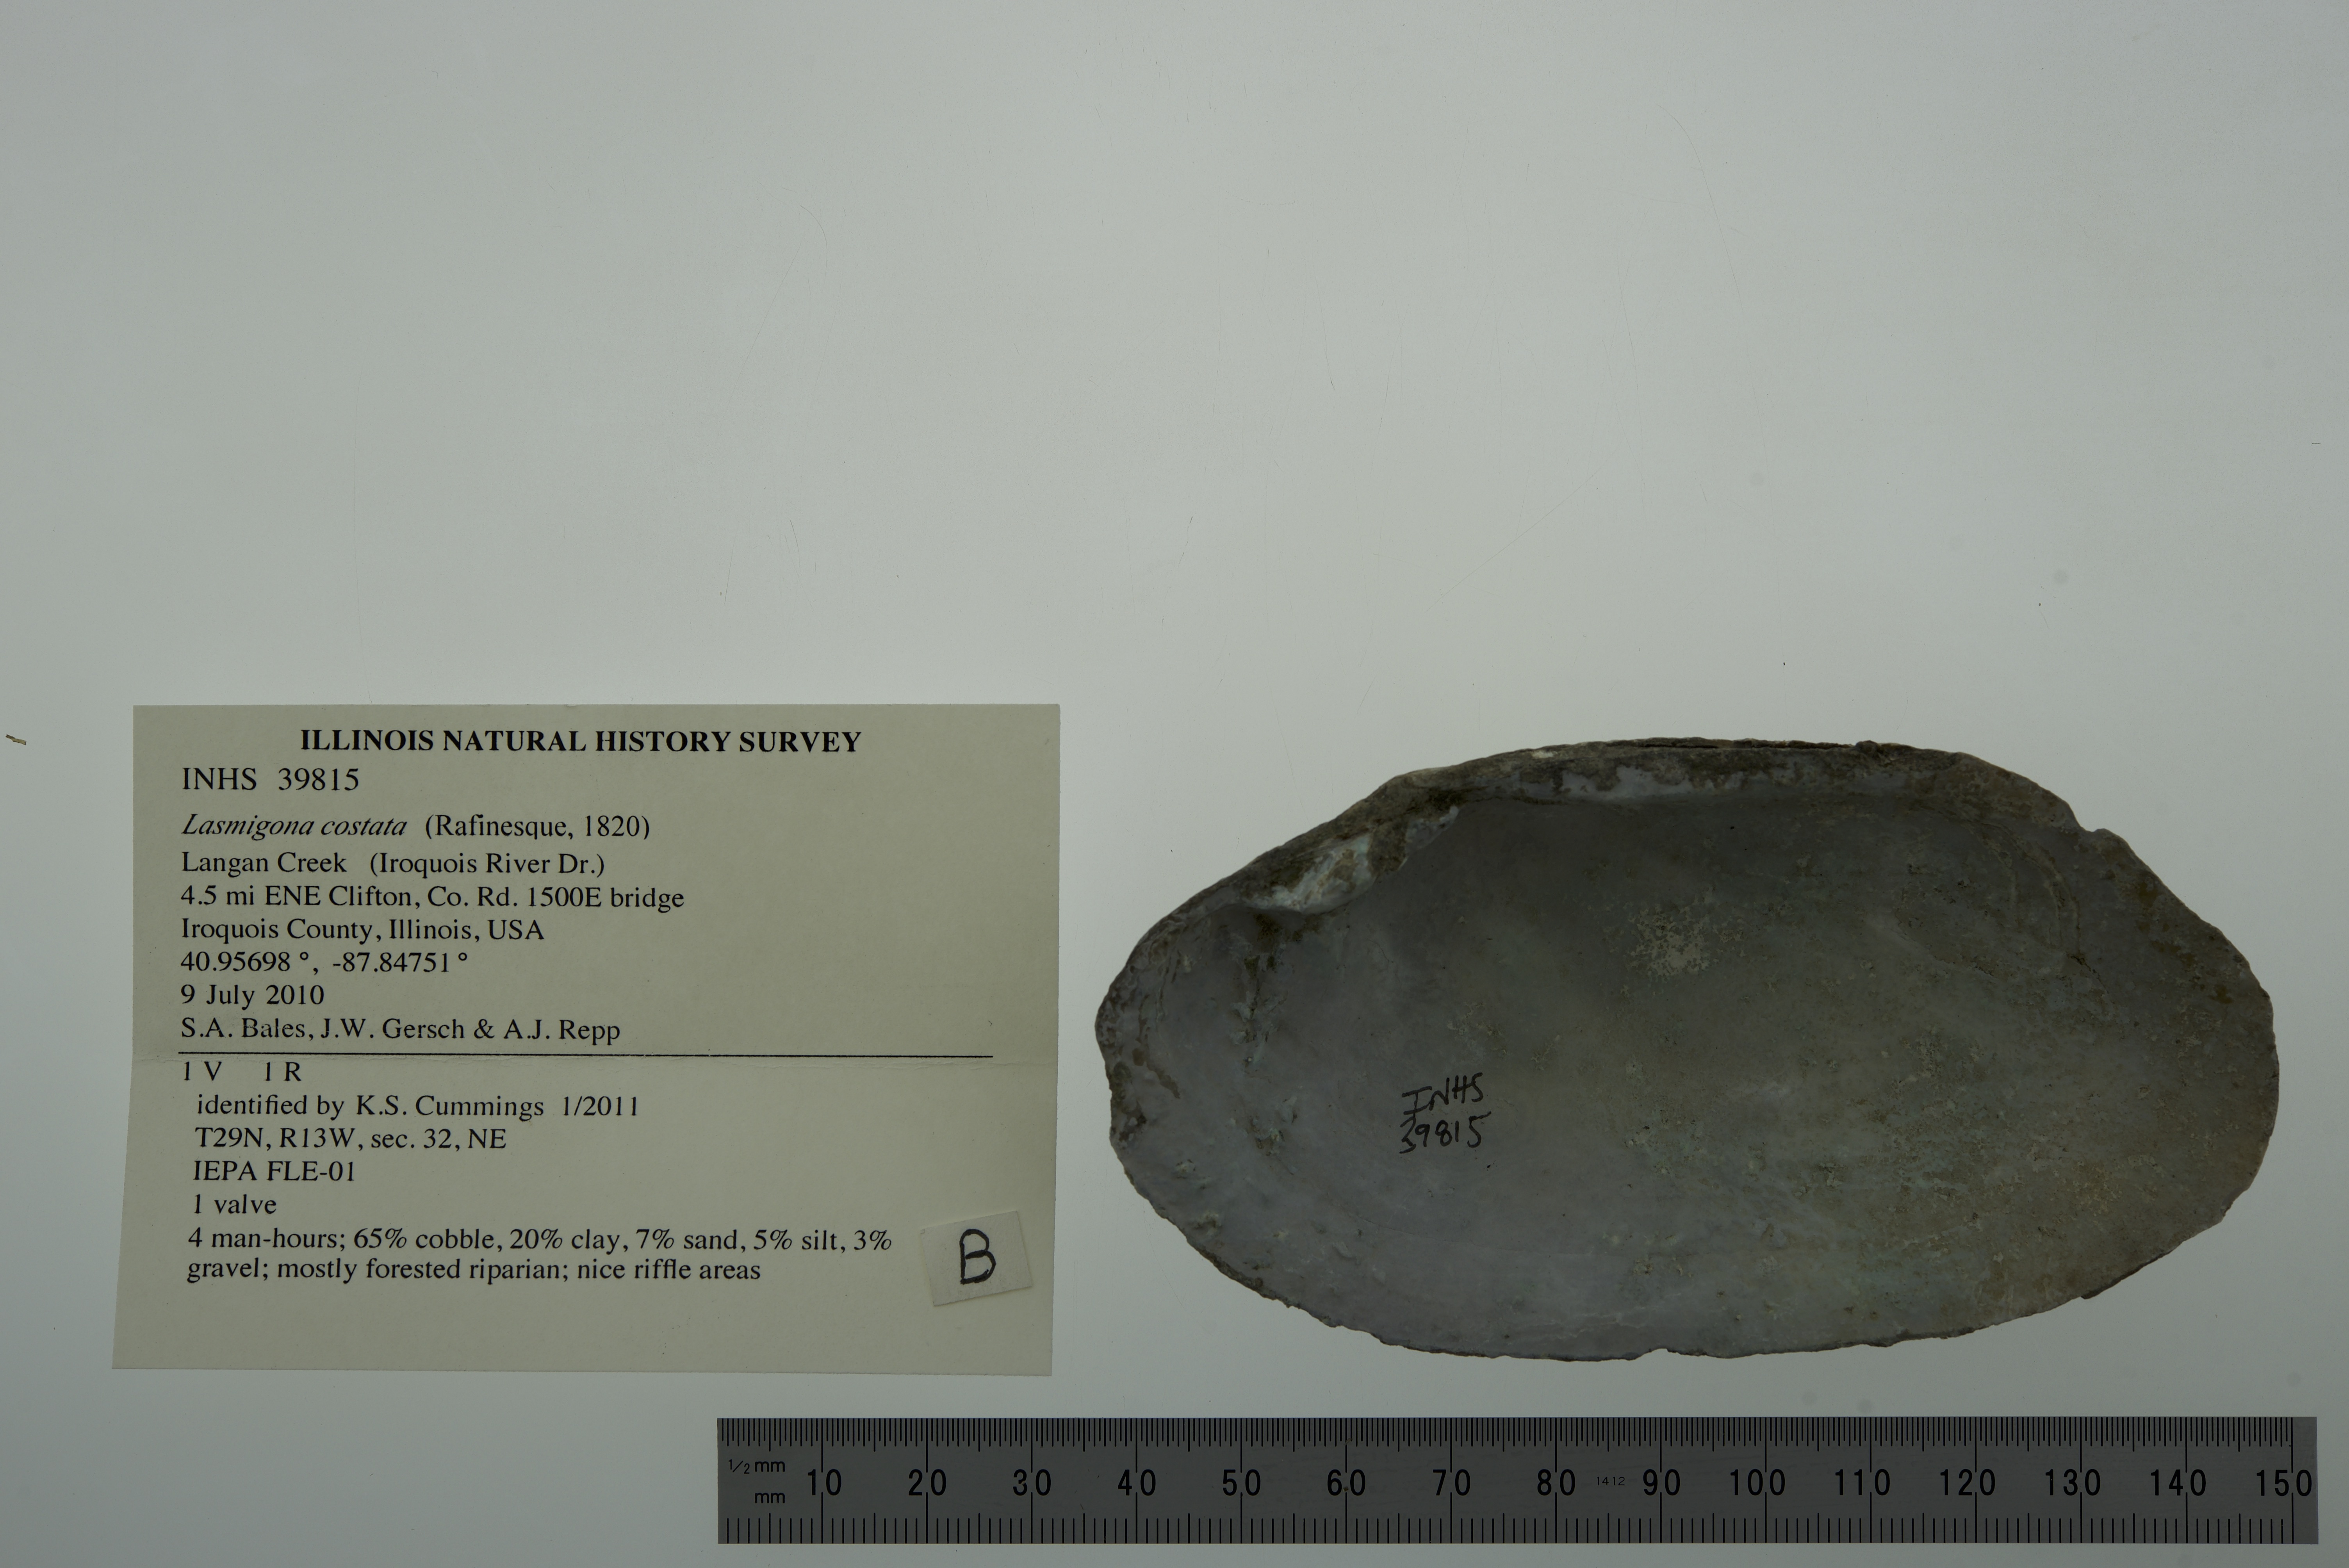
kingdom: Animalia
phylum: Mollusca
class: Bivalvia
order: Unionida
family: Unionidae
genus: Lasmigona
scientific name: Lasmigona costata
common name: Flutedshell
